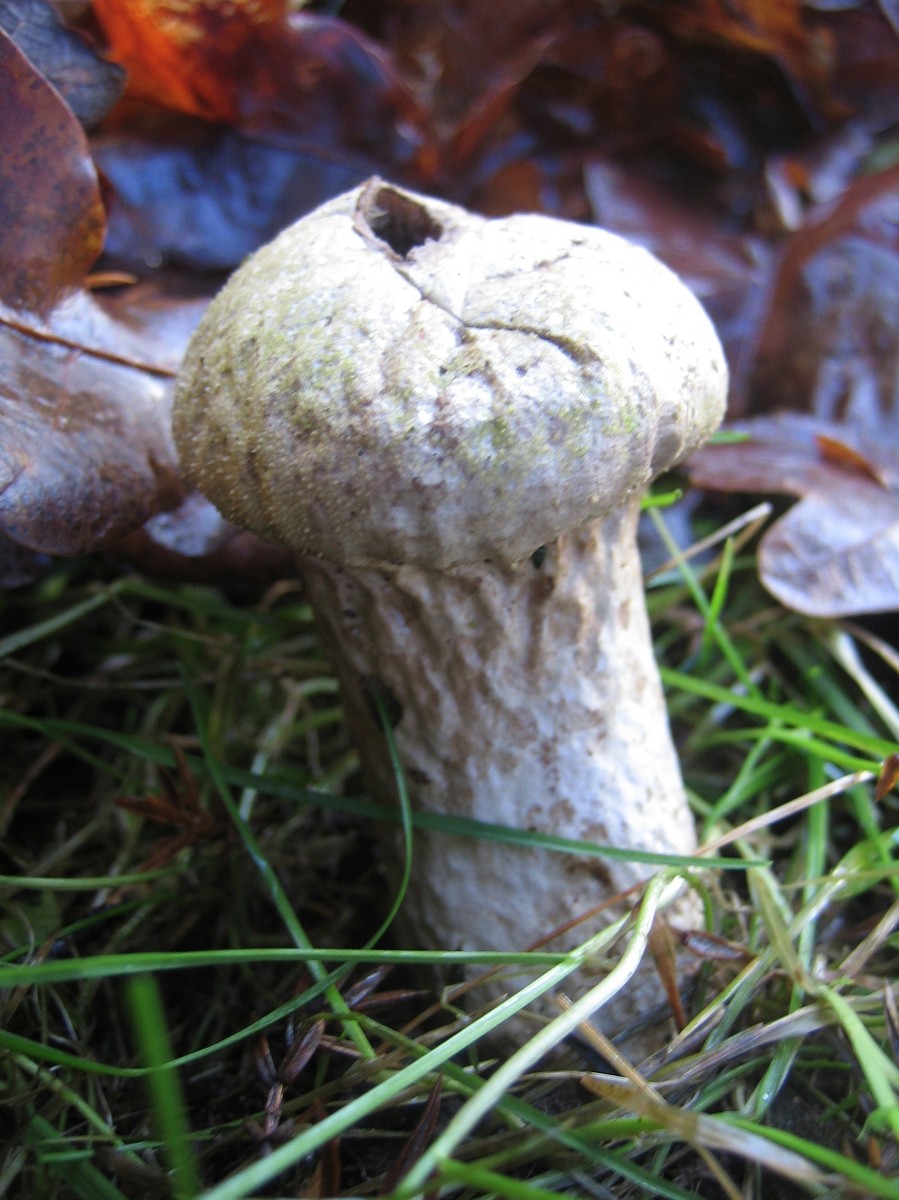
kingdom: Fungi
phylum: Basidiomycota
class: Agaricomycetes
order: Agaricales
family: Agaricaceae
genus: Lycoperdon
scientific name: Lycoperdon
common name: støvbold
